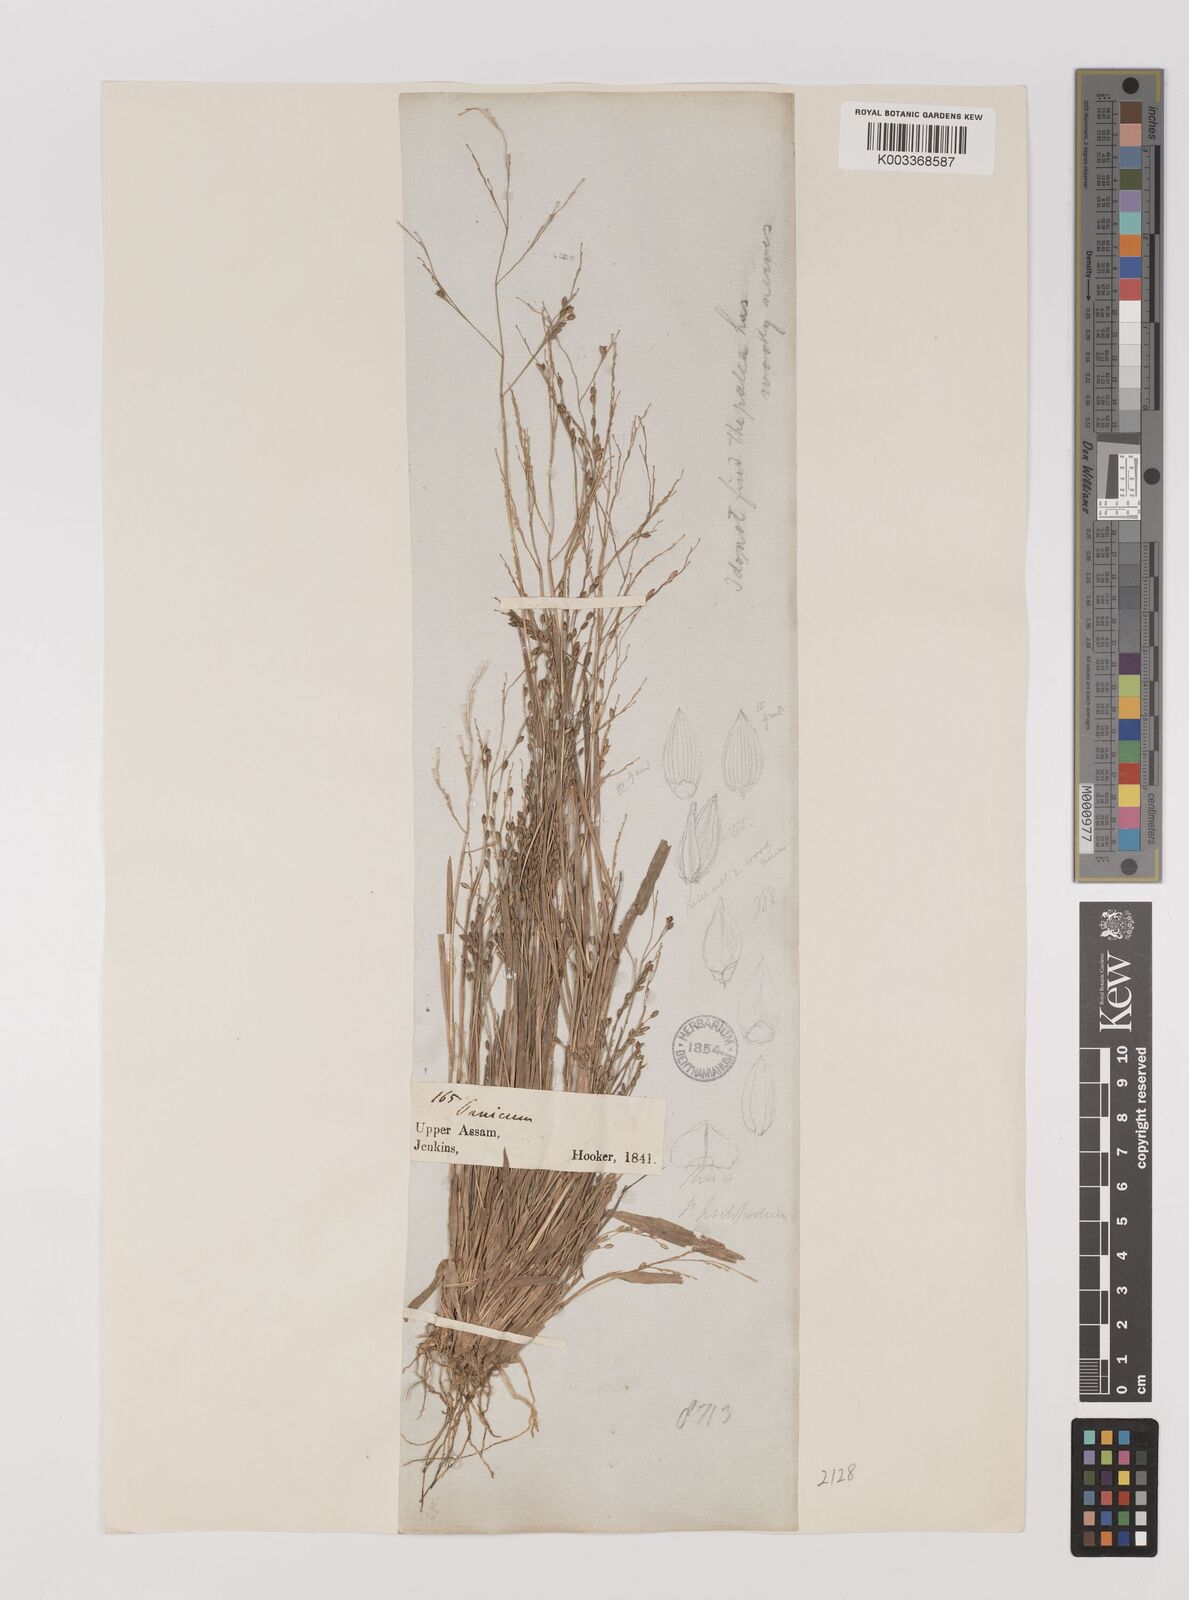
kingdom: Plantae
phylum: Tracheophyta
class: Liliopsida
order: Poales
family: Poaceae
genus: Panicum
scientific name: Panicum sumatrense
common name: Little millet
